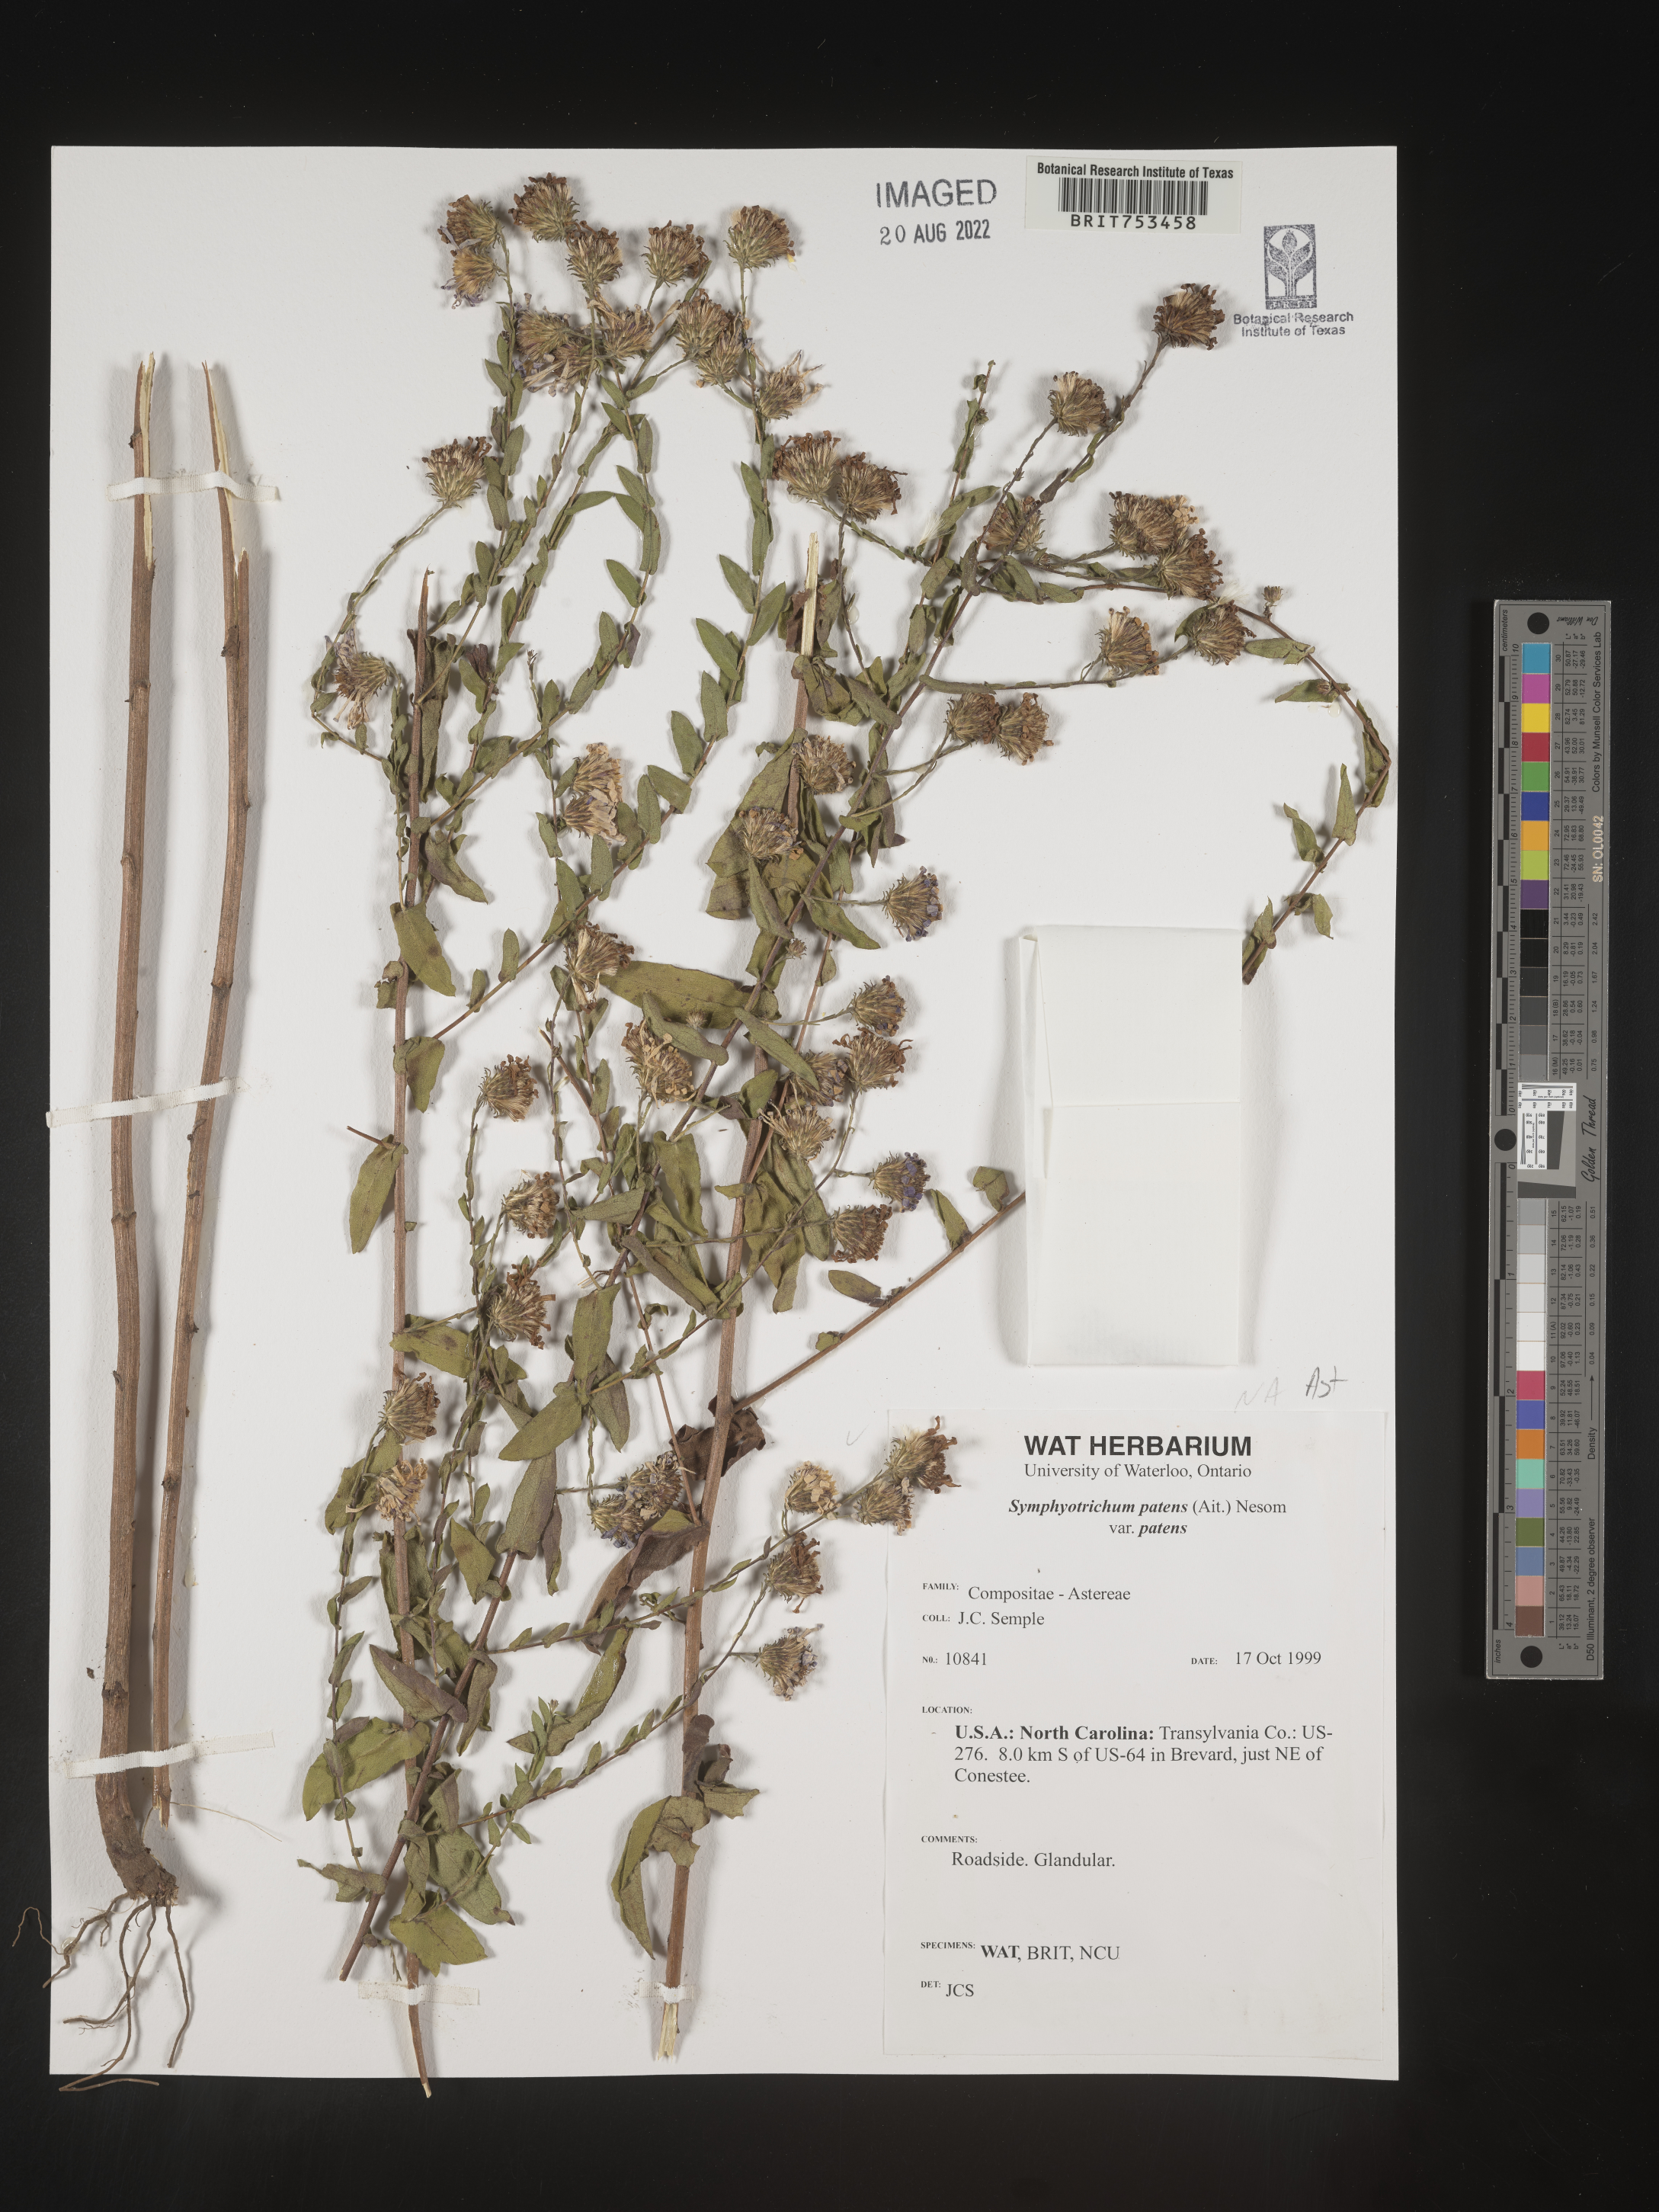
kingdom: Plantae
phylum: Tracheophyta
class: Magnoliopsida
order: Asterales
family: Asteraceae
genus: Symphyotrichum
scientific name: Symphyotrichum patens
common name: Late purple aster
